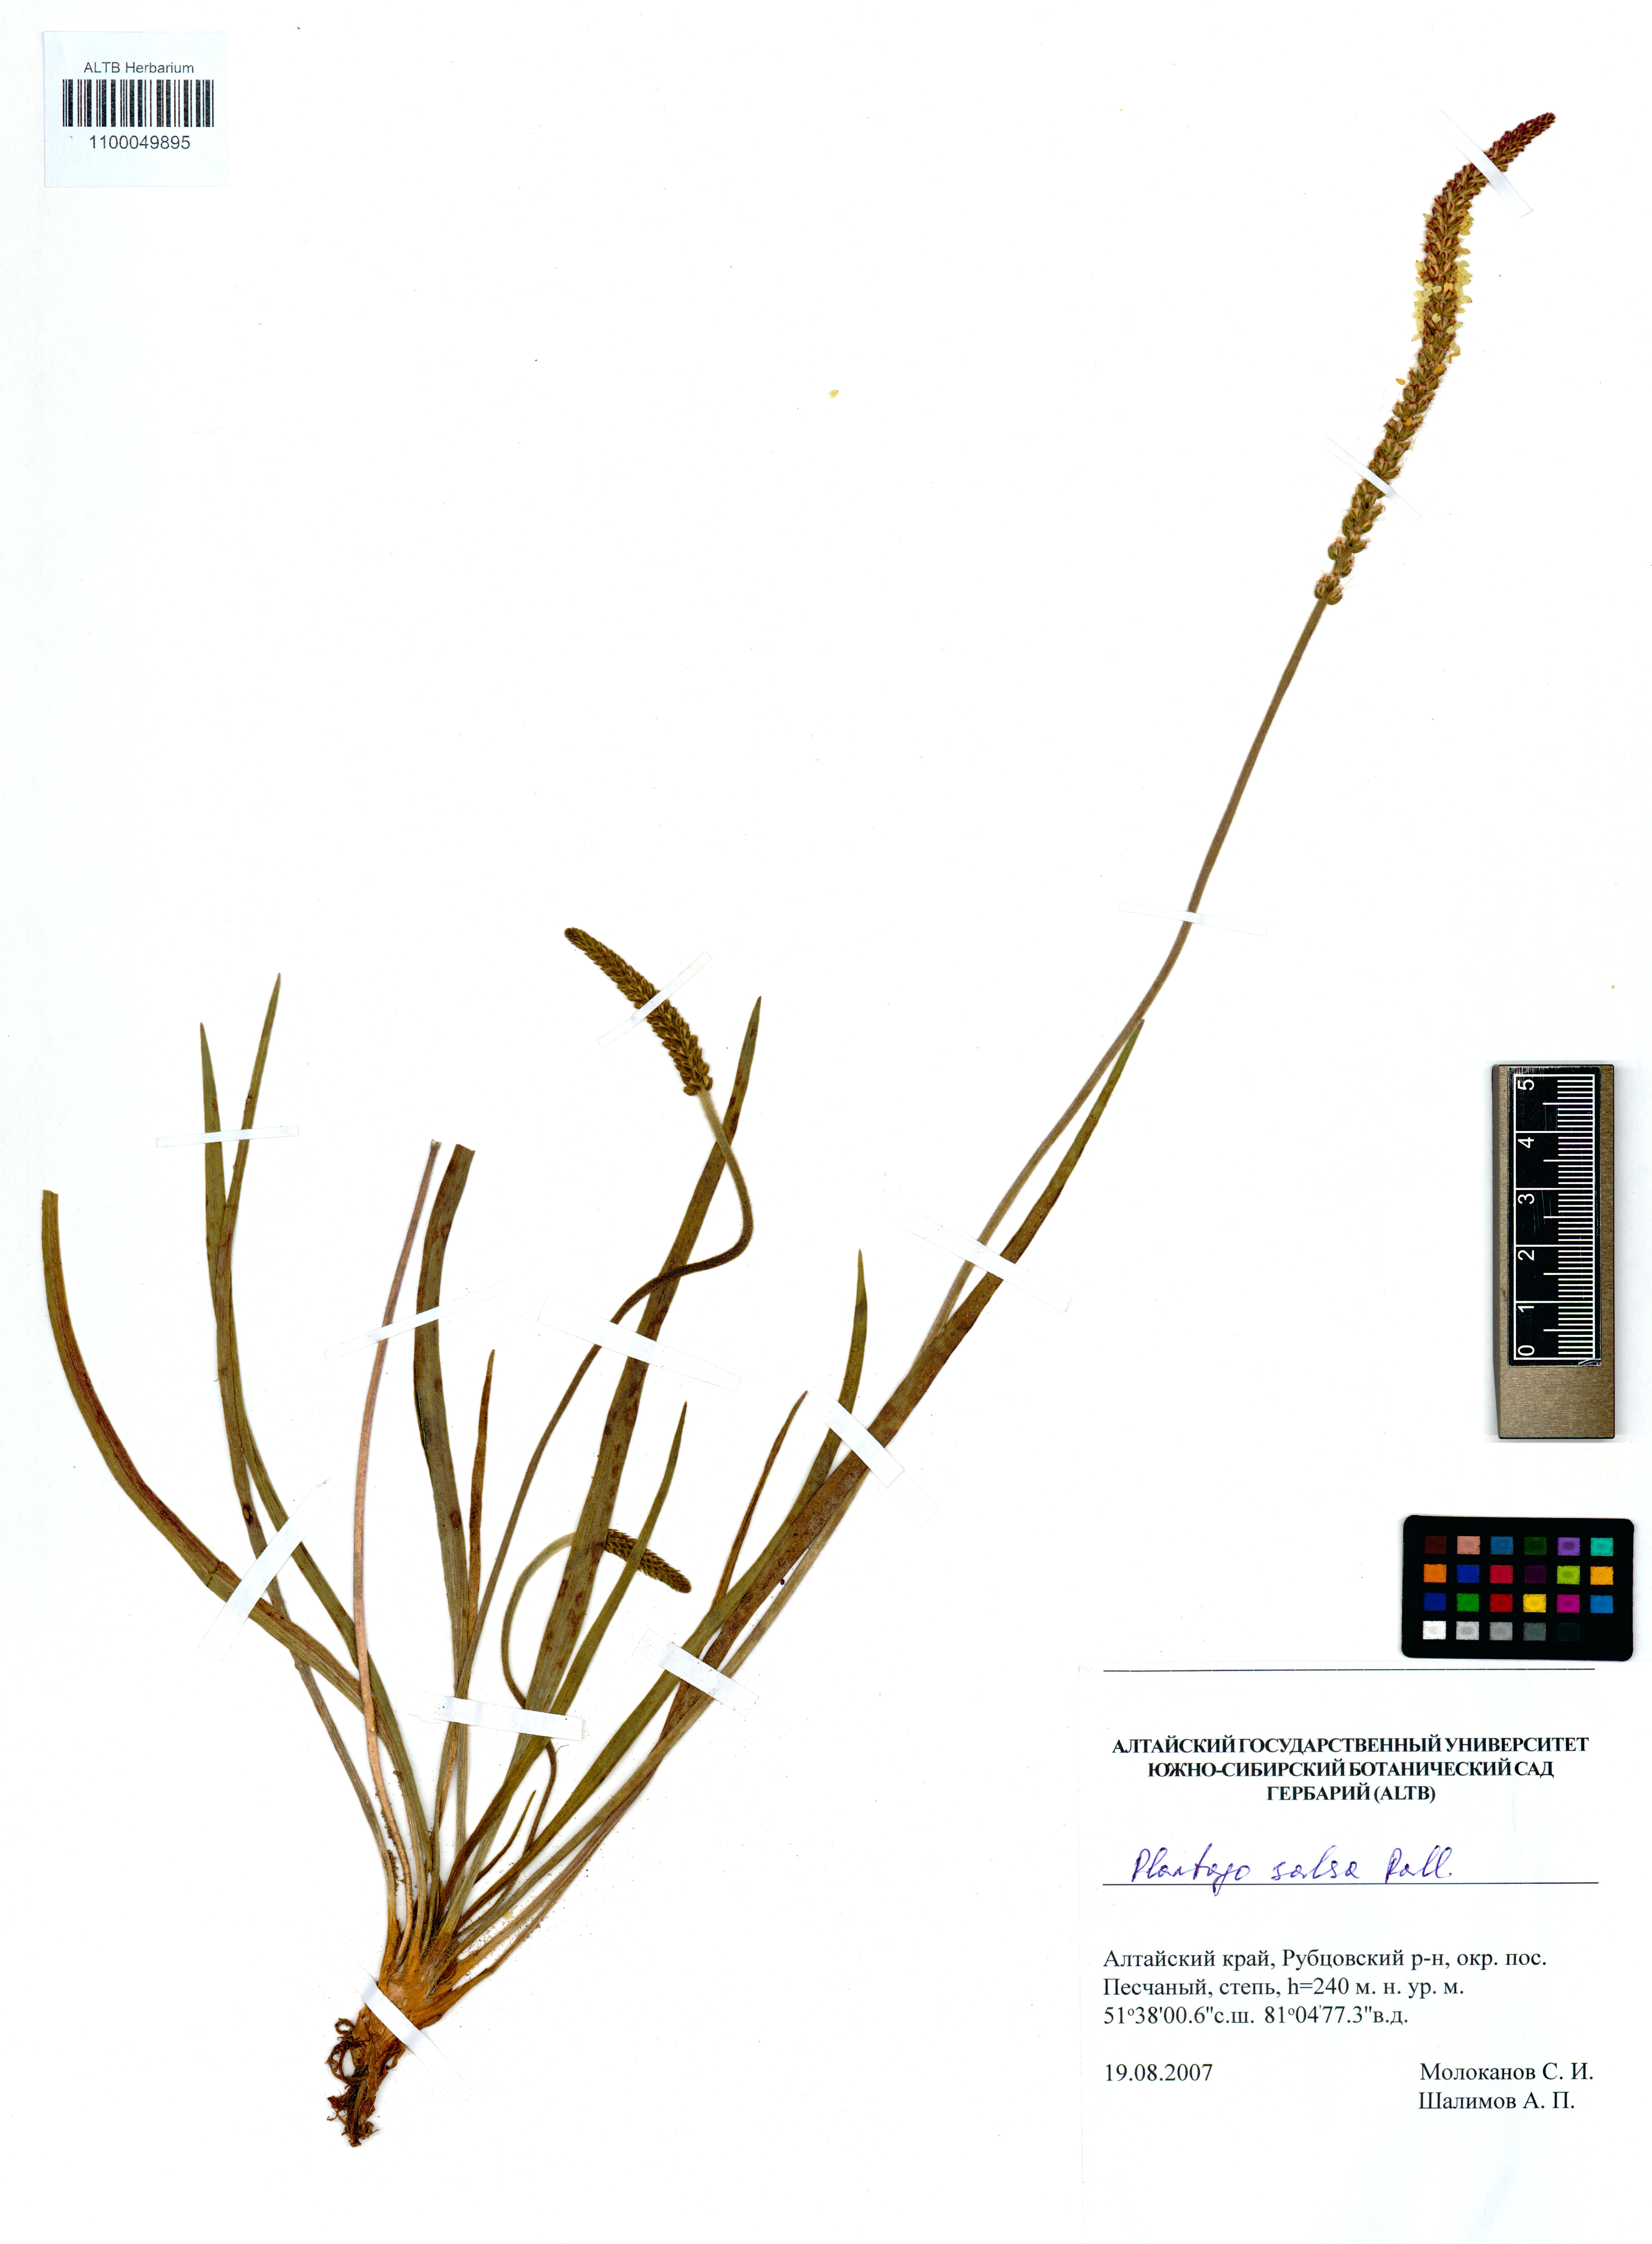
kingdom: Plantae
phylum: Tracheophyta
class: Magnoliopsida
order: Lamiales
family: Plantaginaceae
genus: Plantago
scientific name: Plantago salsa
